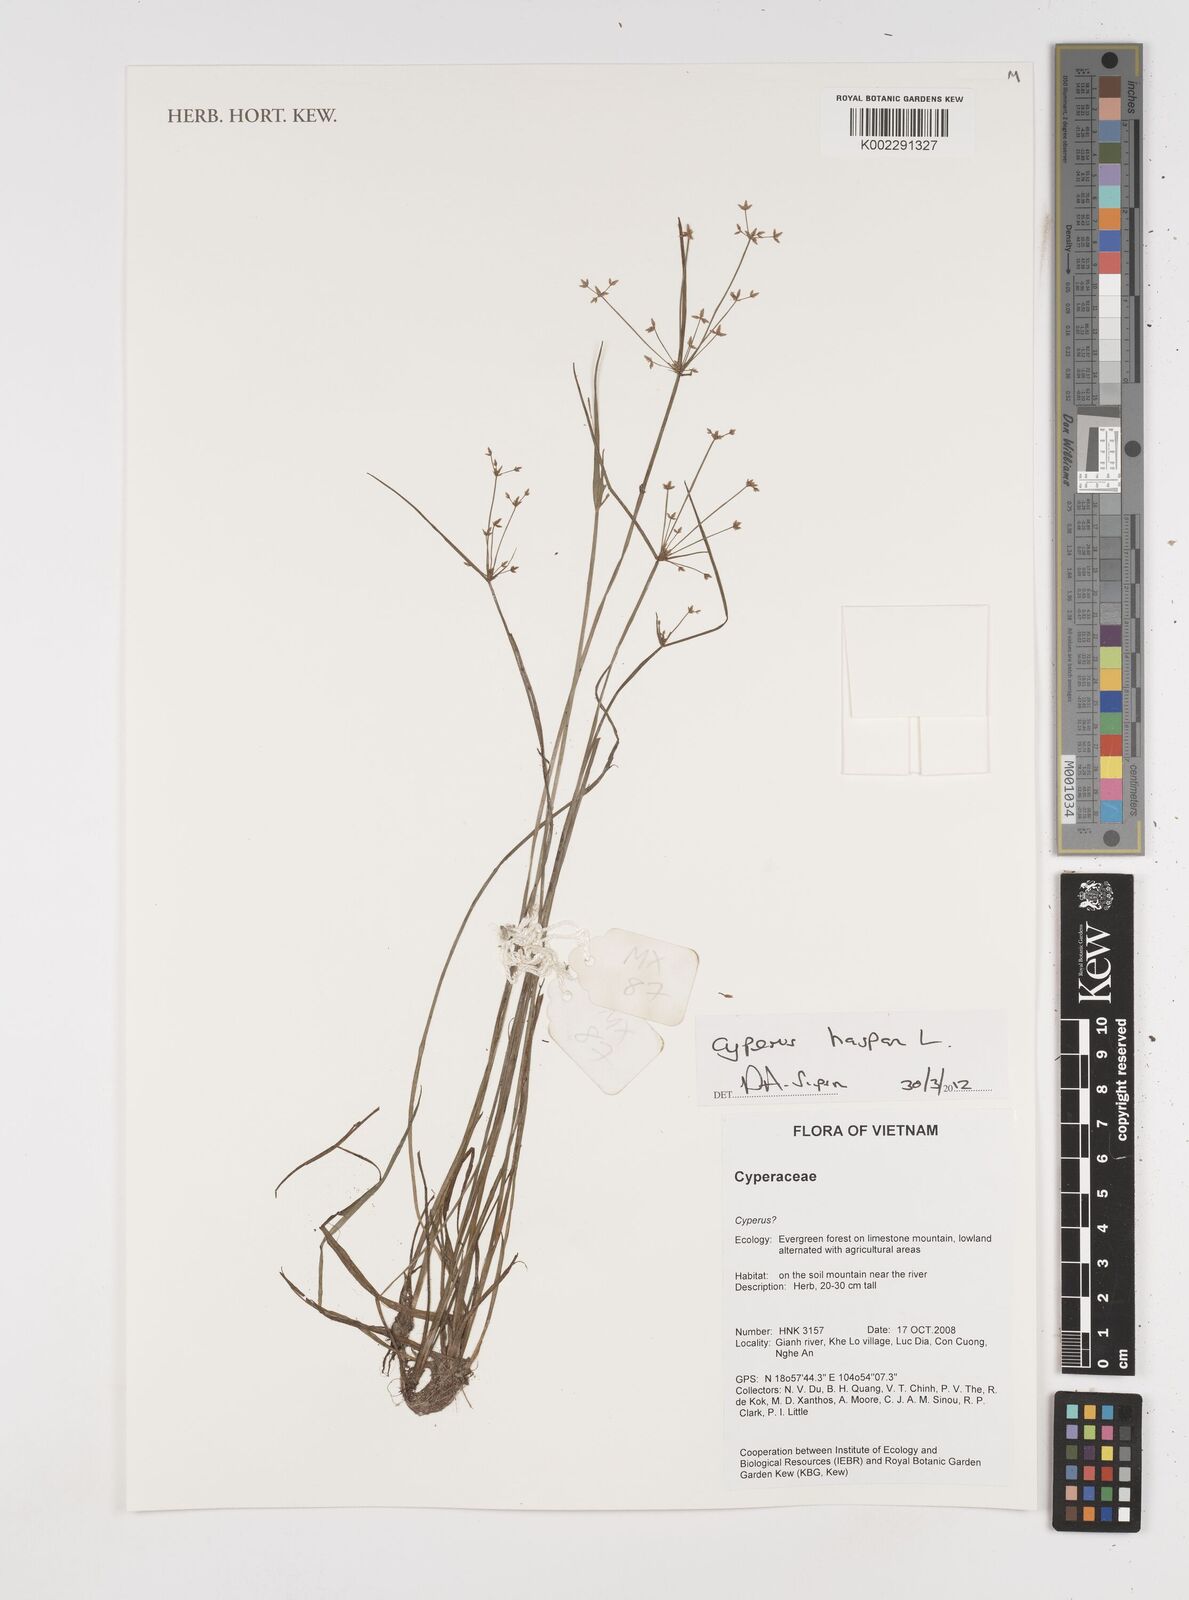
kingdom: Plantae
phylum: Tracheophyta
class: Liliopsida
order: Poales
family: Cyperaceae
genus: Cyperus
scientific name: Cyperus haspan
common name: Haspan flatsedge
